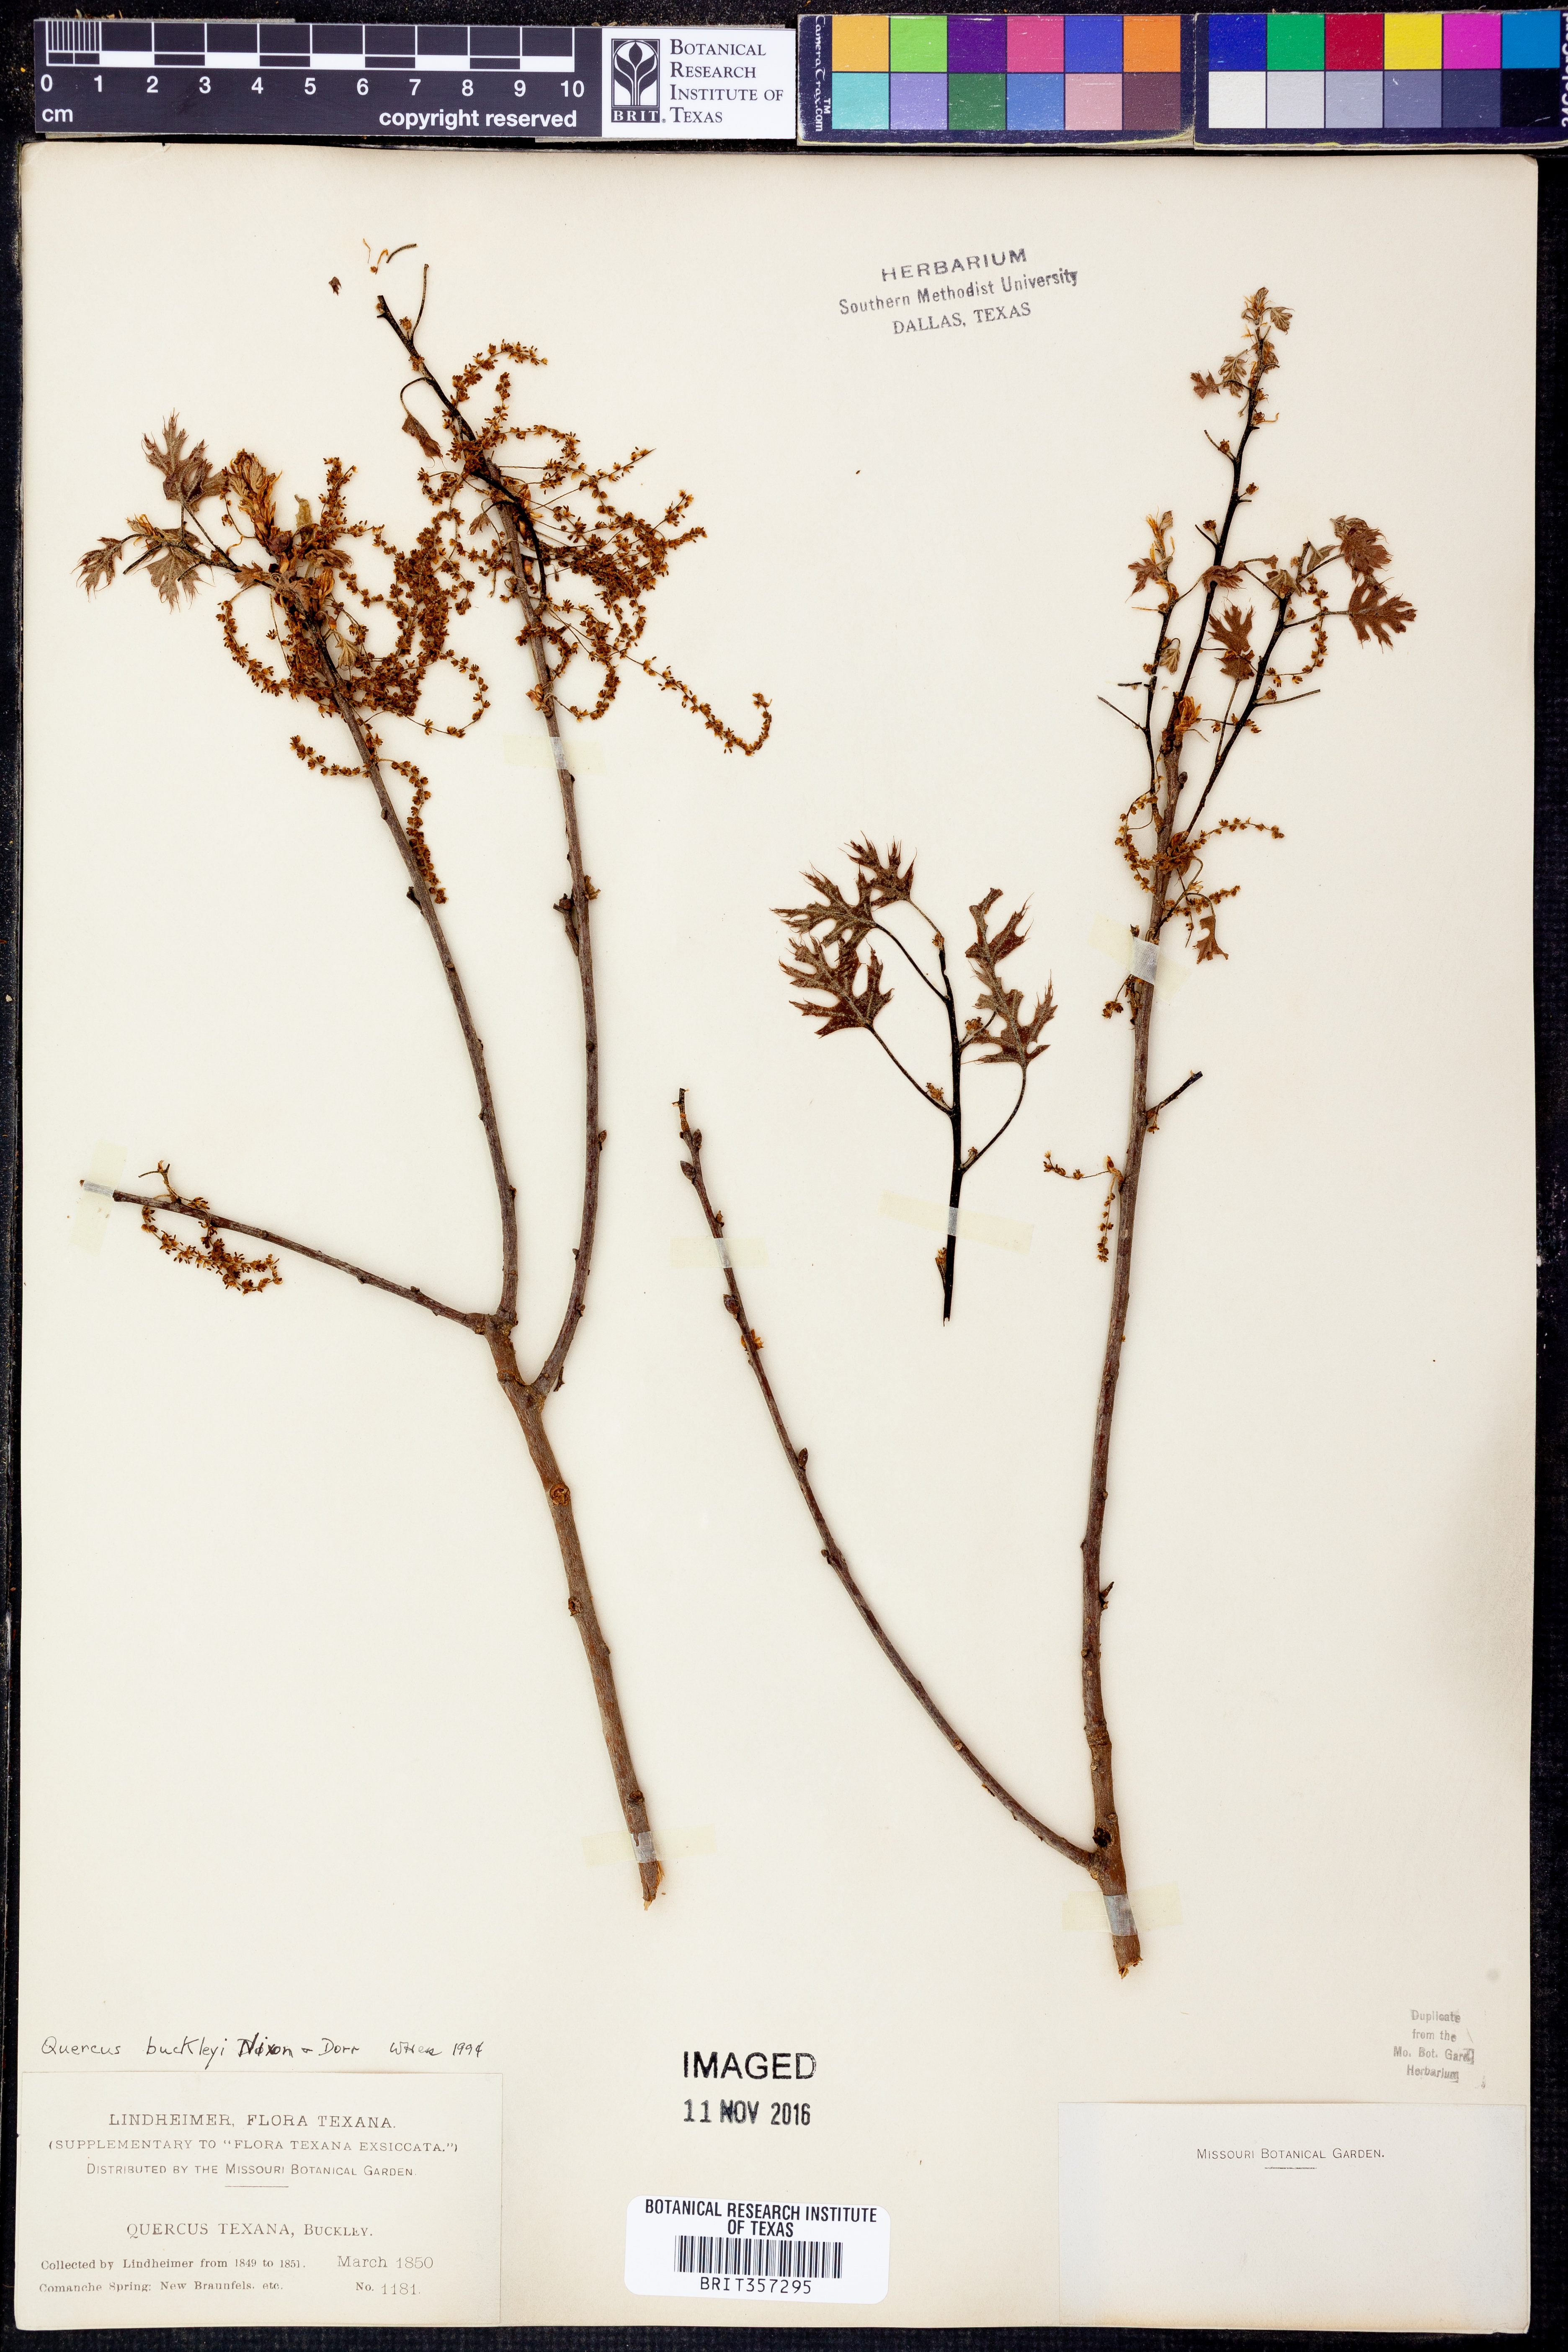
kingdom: Plantae
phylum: Tracheophyta
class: Magnoliopsida
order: Fagales
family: Fagaceae
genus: Quercus
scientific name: Quercus buckleyi
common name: Buckley oak
